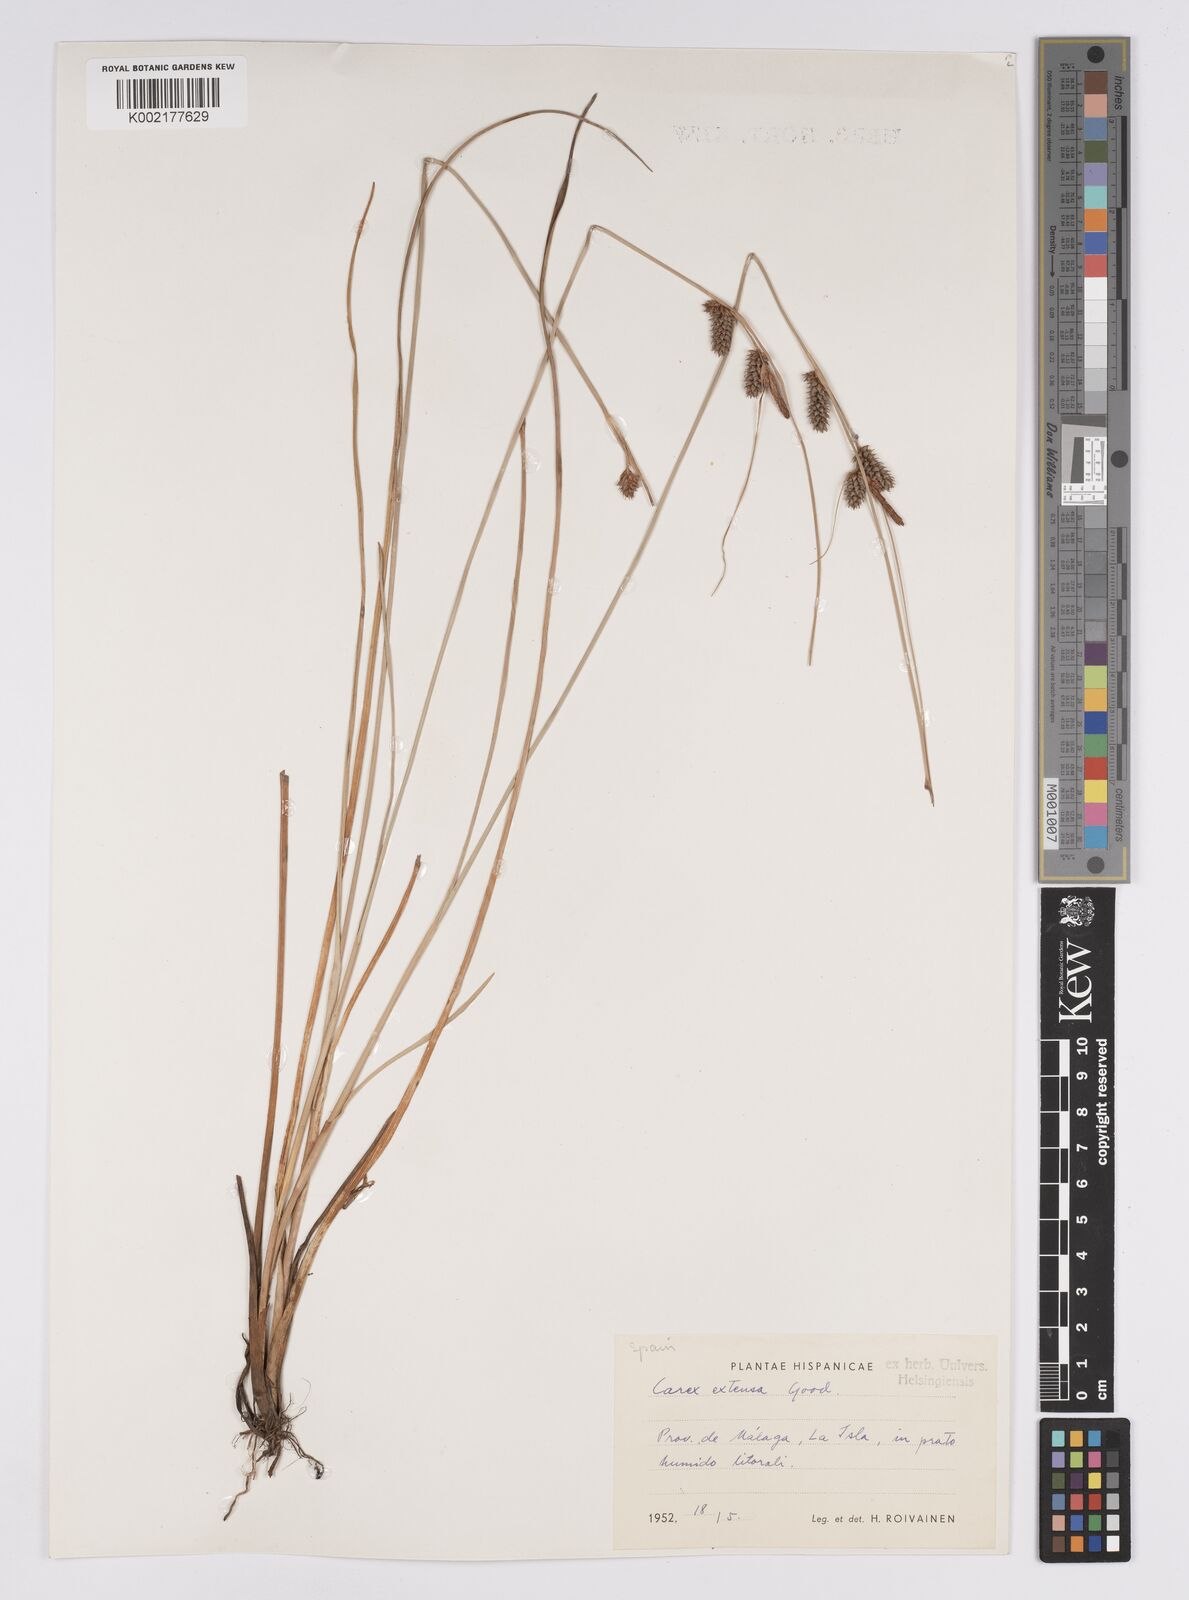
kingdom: Plantae
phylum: Tracheophyta
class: Liliopsida
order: Poales
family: Cyperaceae
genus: Carex
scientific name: Carex extensa
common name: Long-bracted sedge
